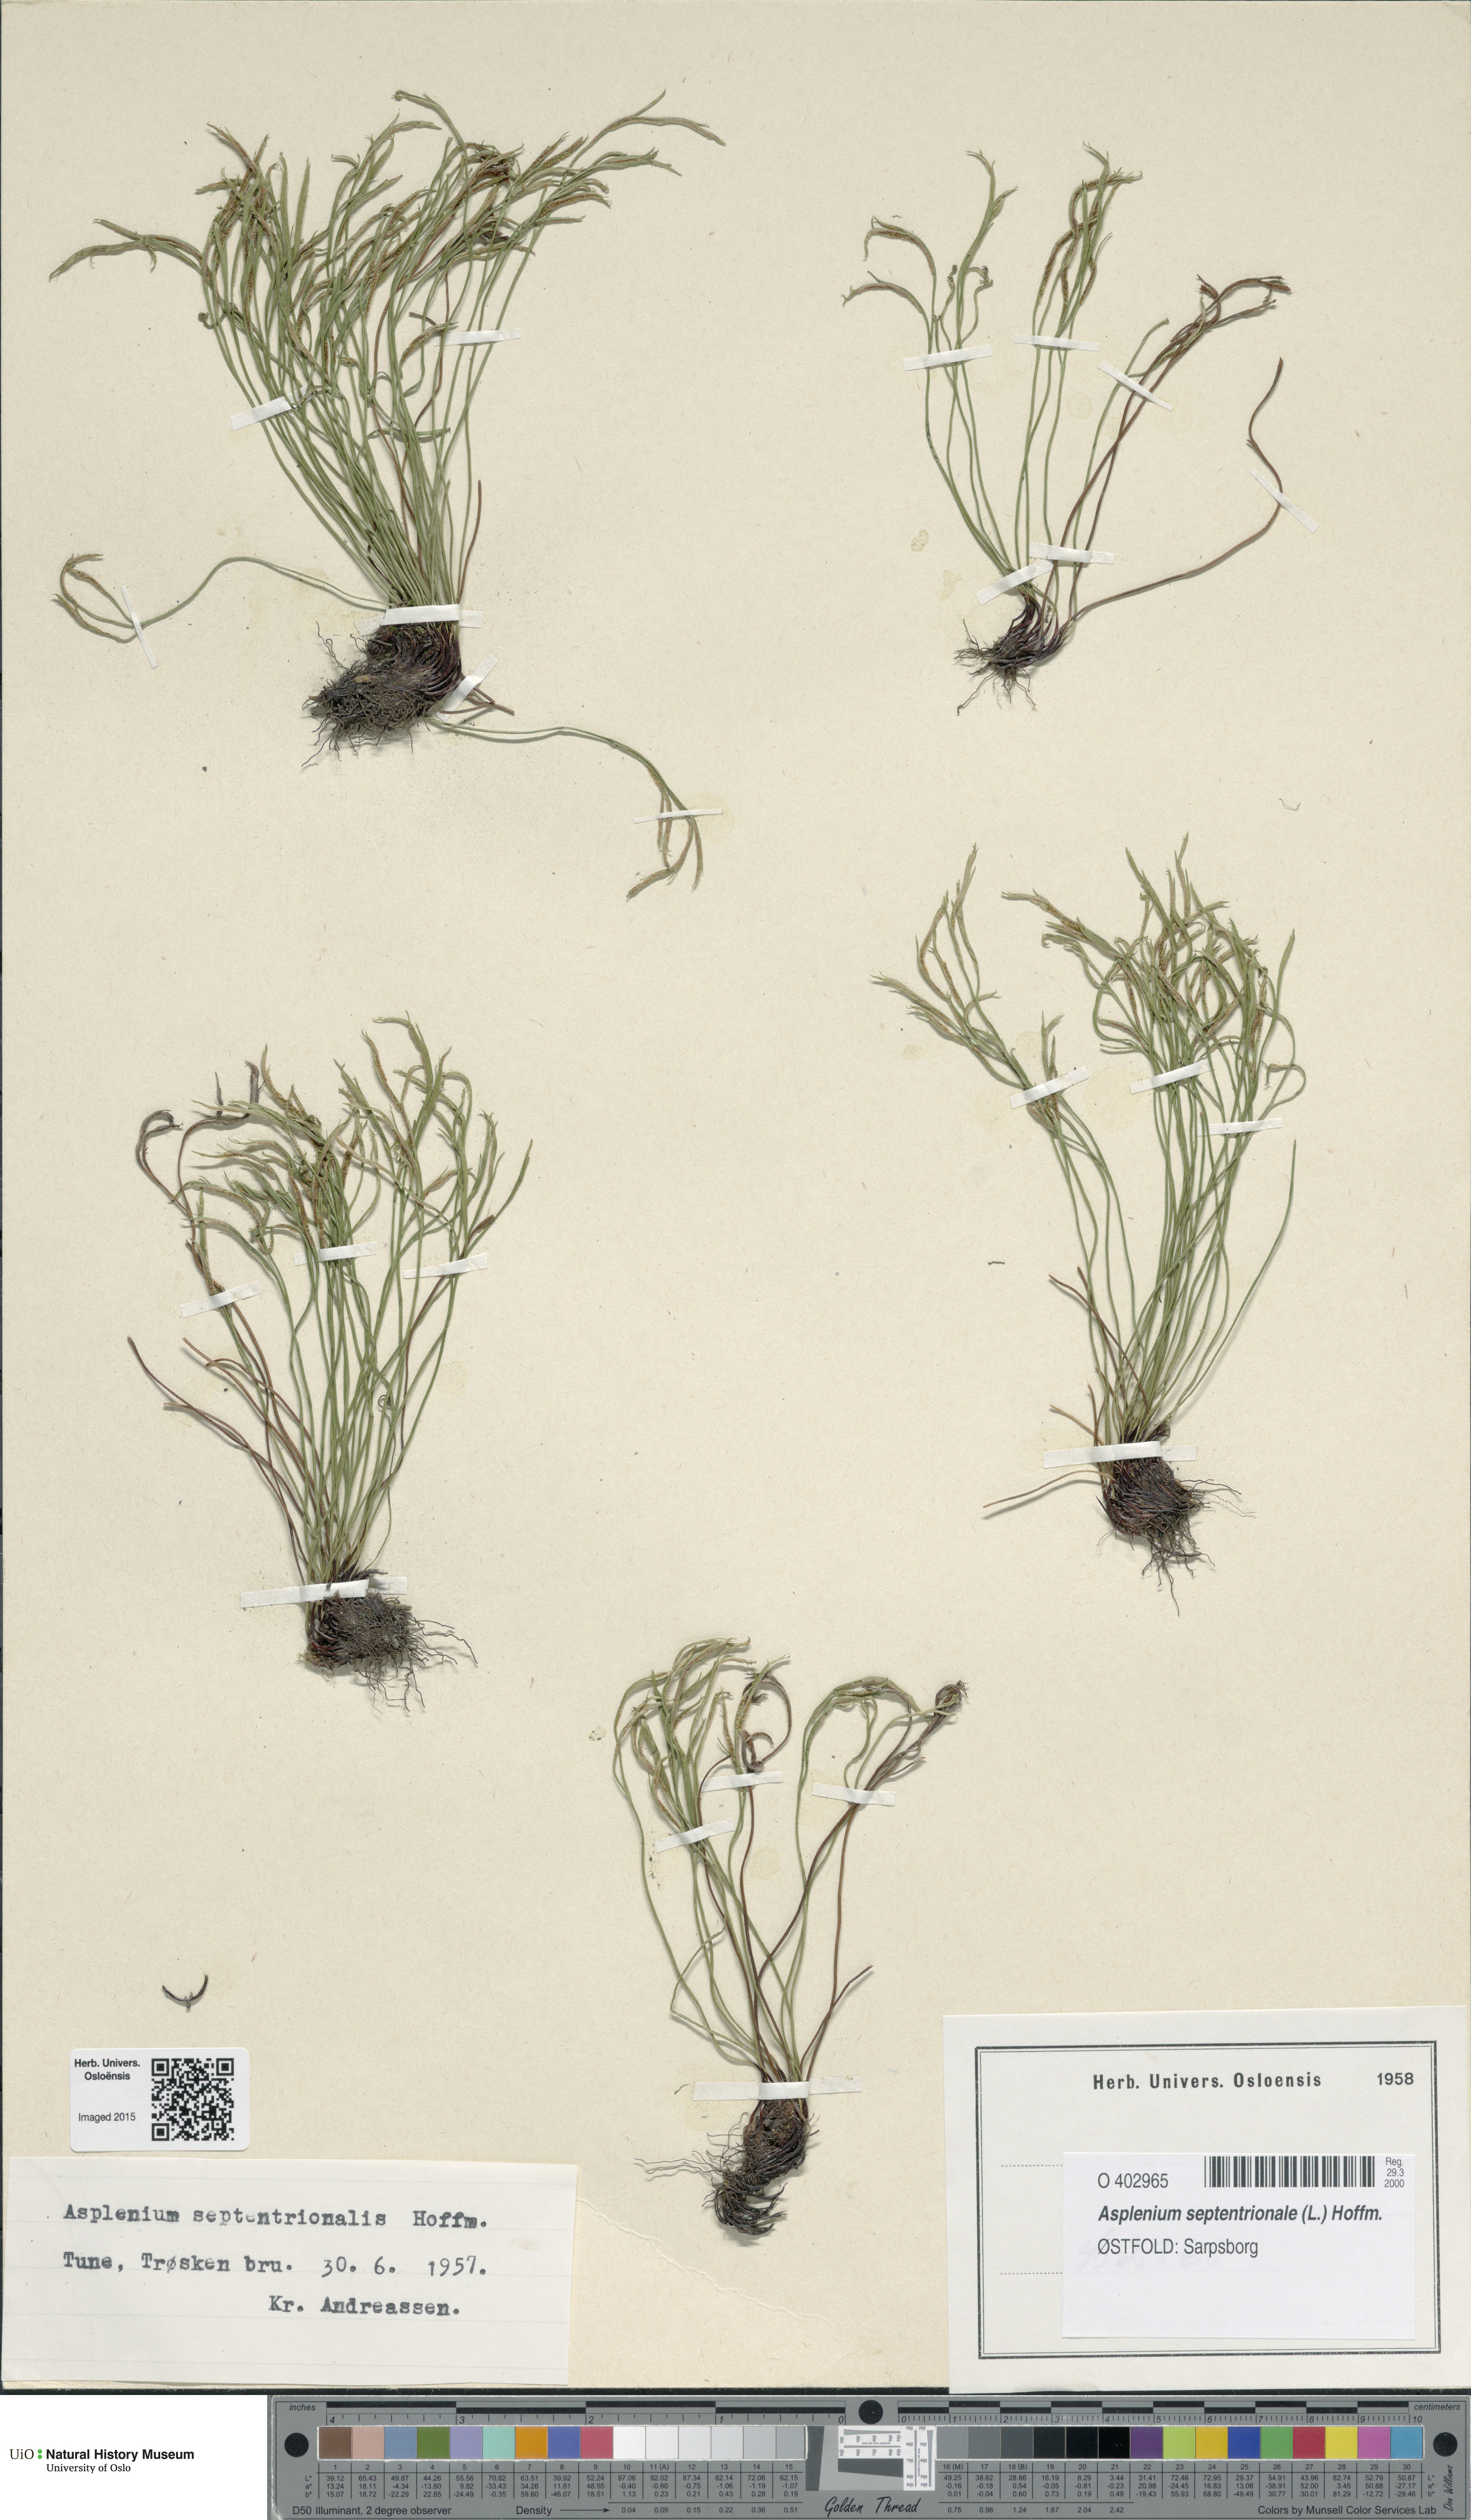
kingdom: Plantae
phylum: Tracheophyta
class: Polypodiopsida
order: Polypodiales
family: Aspleniaceae
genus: Asplenium
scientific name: Asplenium septentrionale
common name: Forked spleenwort
